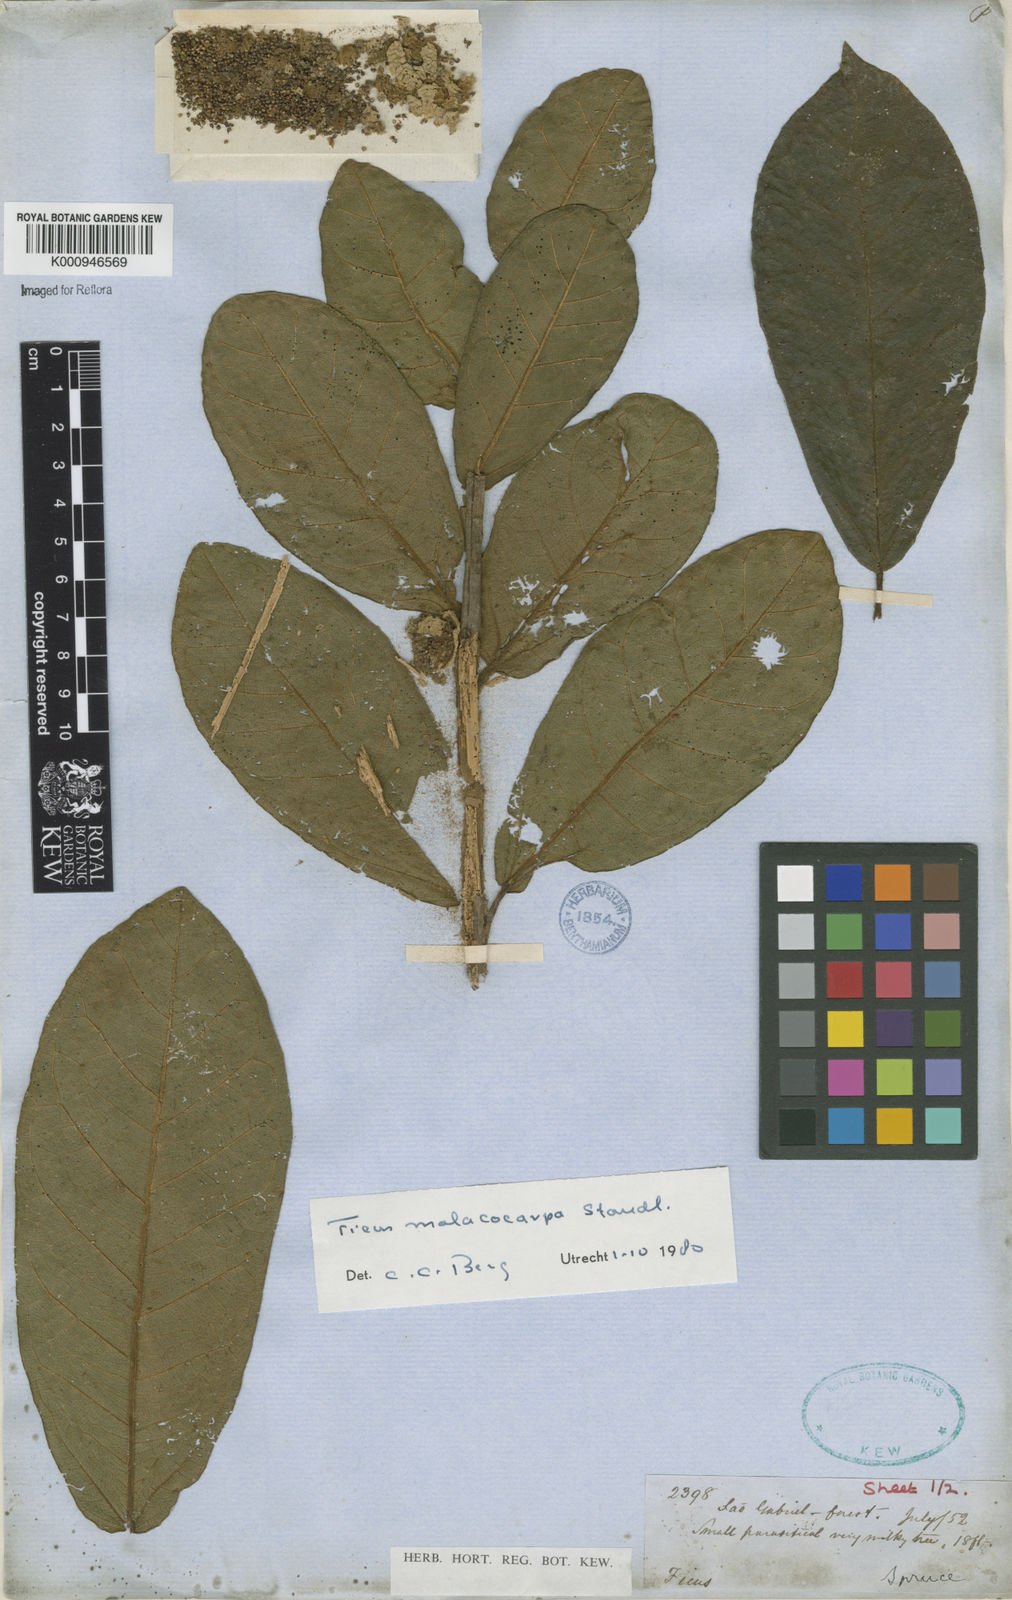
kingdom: Plantae
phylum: Tracheophyta
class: Magnoliopsida
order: Rosales
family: Moraceae
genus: Ficus
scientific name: Ficus popenoei
